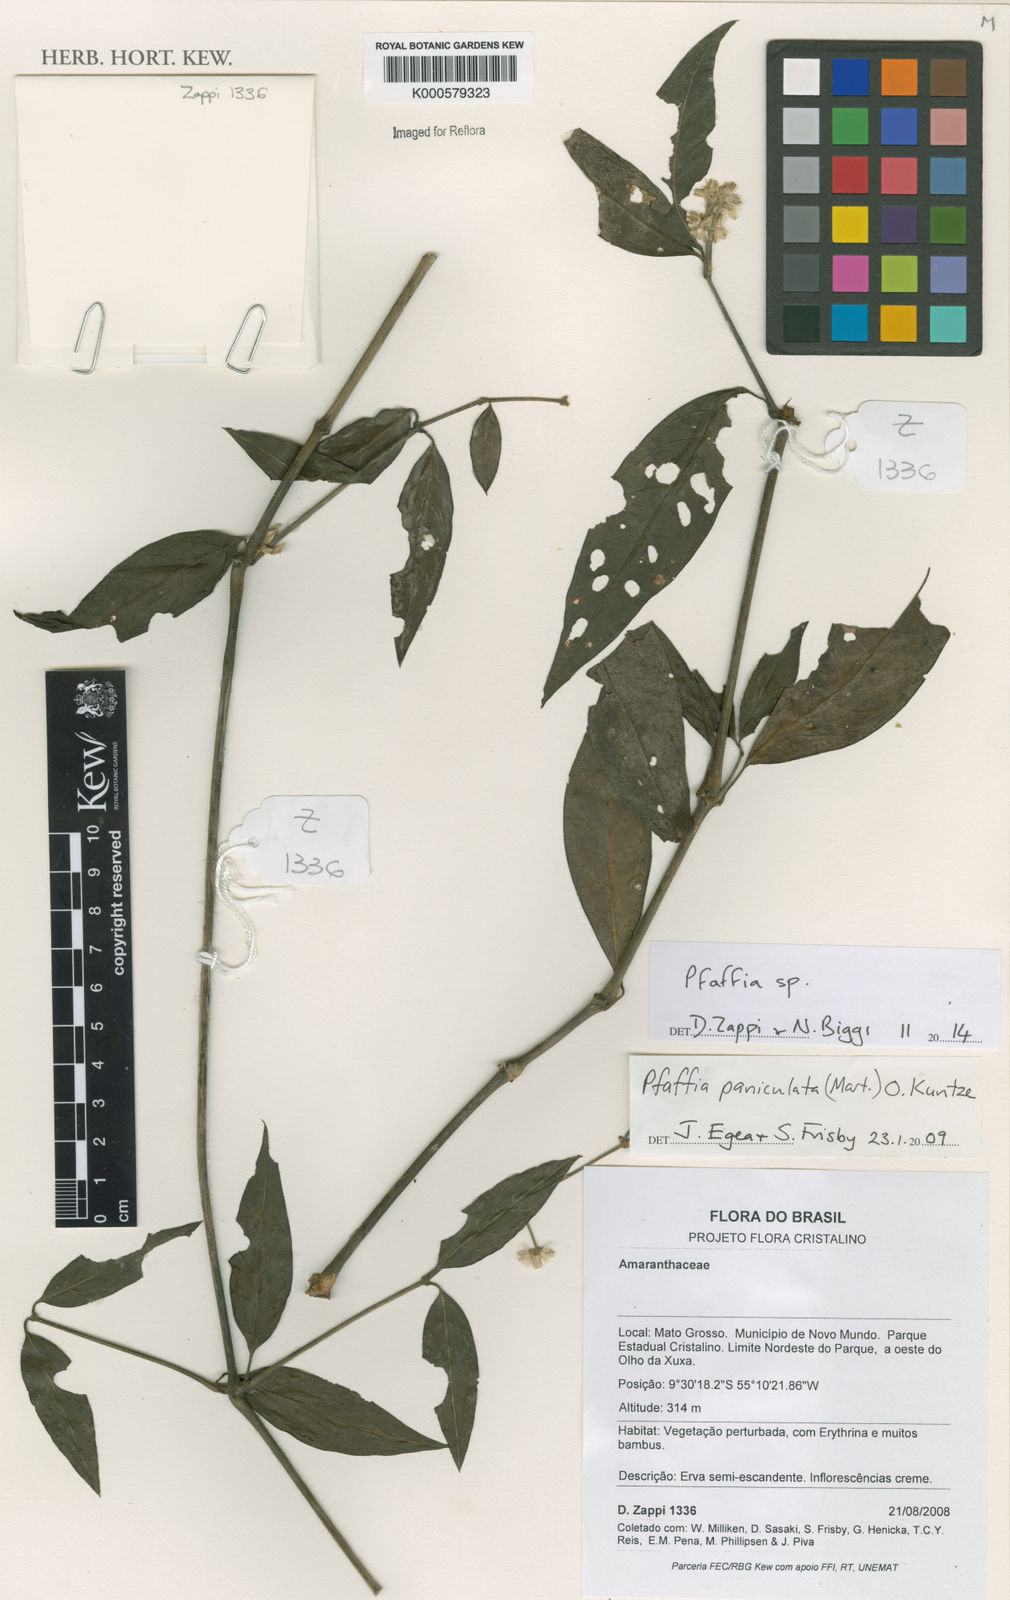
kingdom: Plantae
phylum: Tracheophyta
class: Magnoliopsida
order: Caryophyllales
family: Amaranthaceae
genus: Pfaffia
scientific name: Pfaffia
